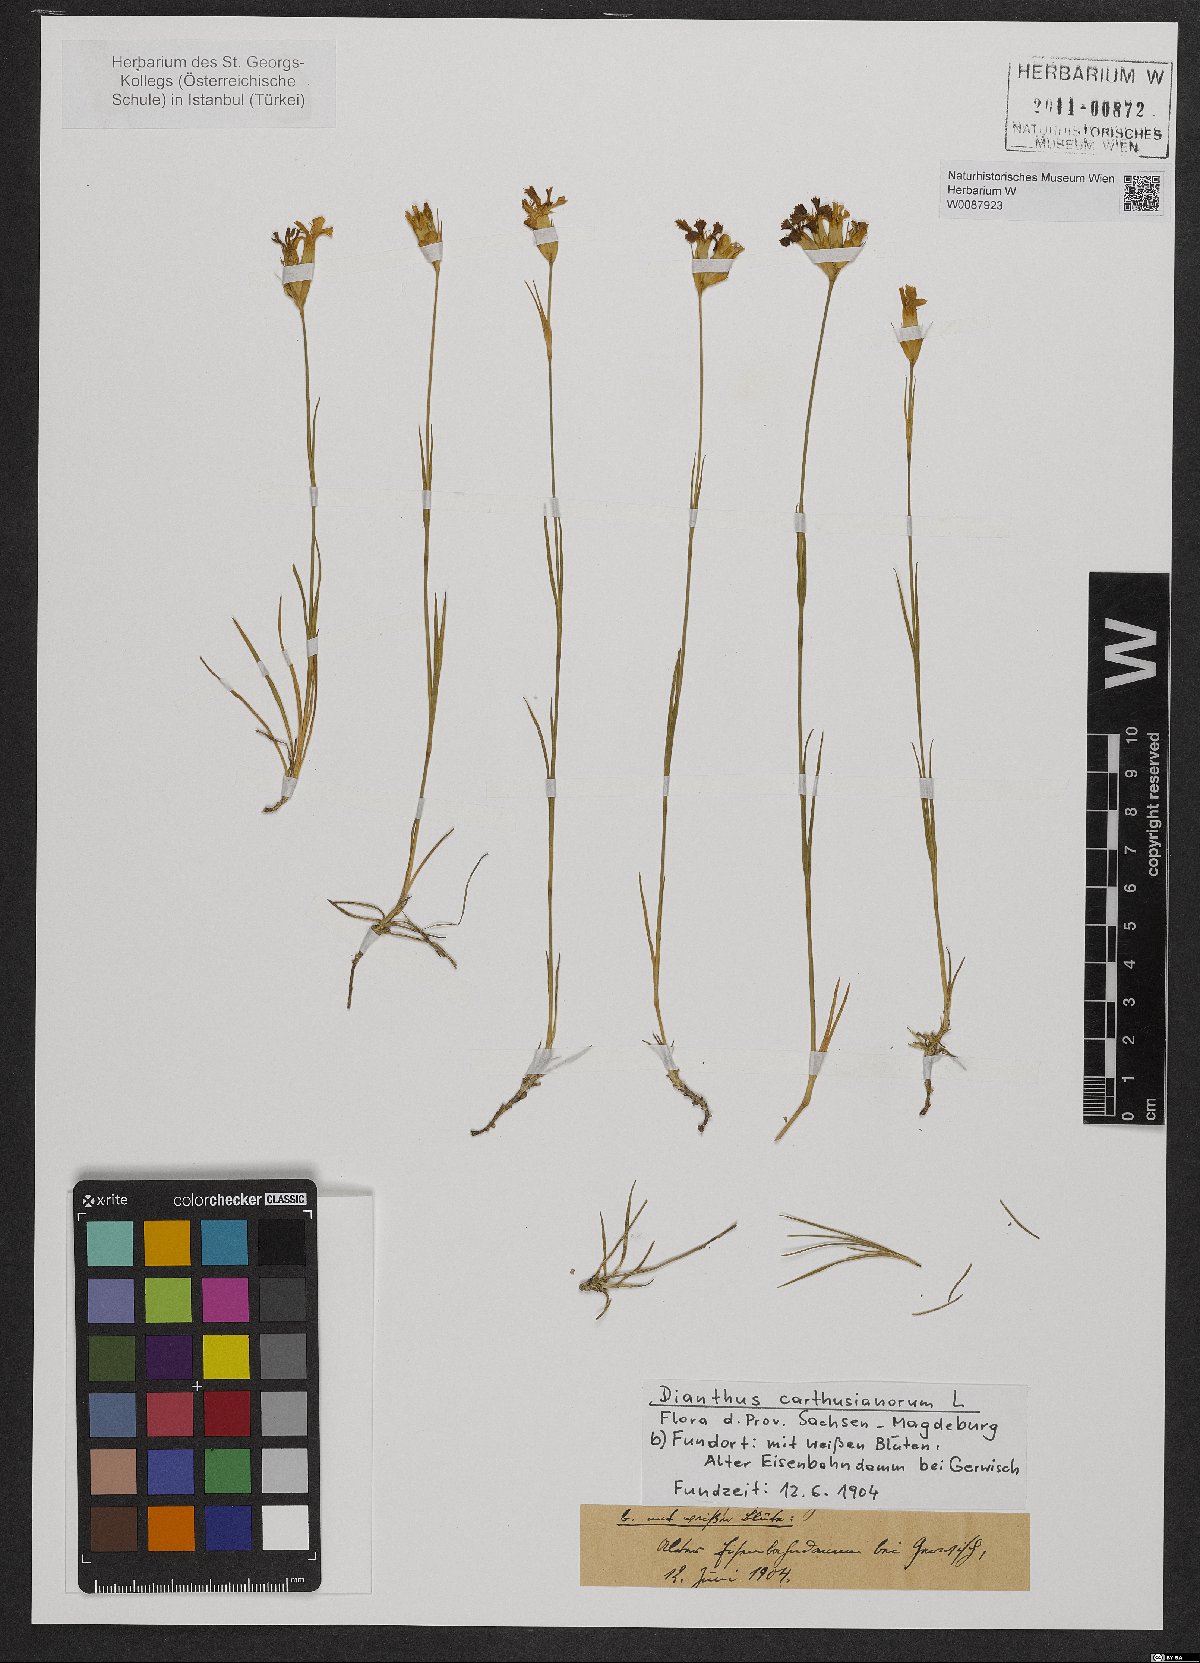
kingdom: Plantae
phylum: Tracheophyta
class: Magnoliopsida
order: Caryophyllales
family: Caryophyllaceae
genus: Dianthus
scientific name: Dianthus carthusianorum
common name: Carthusian pink
